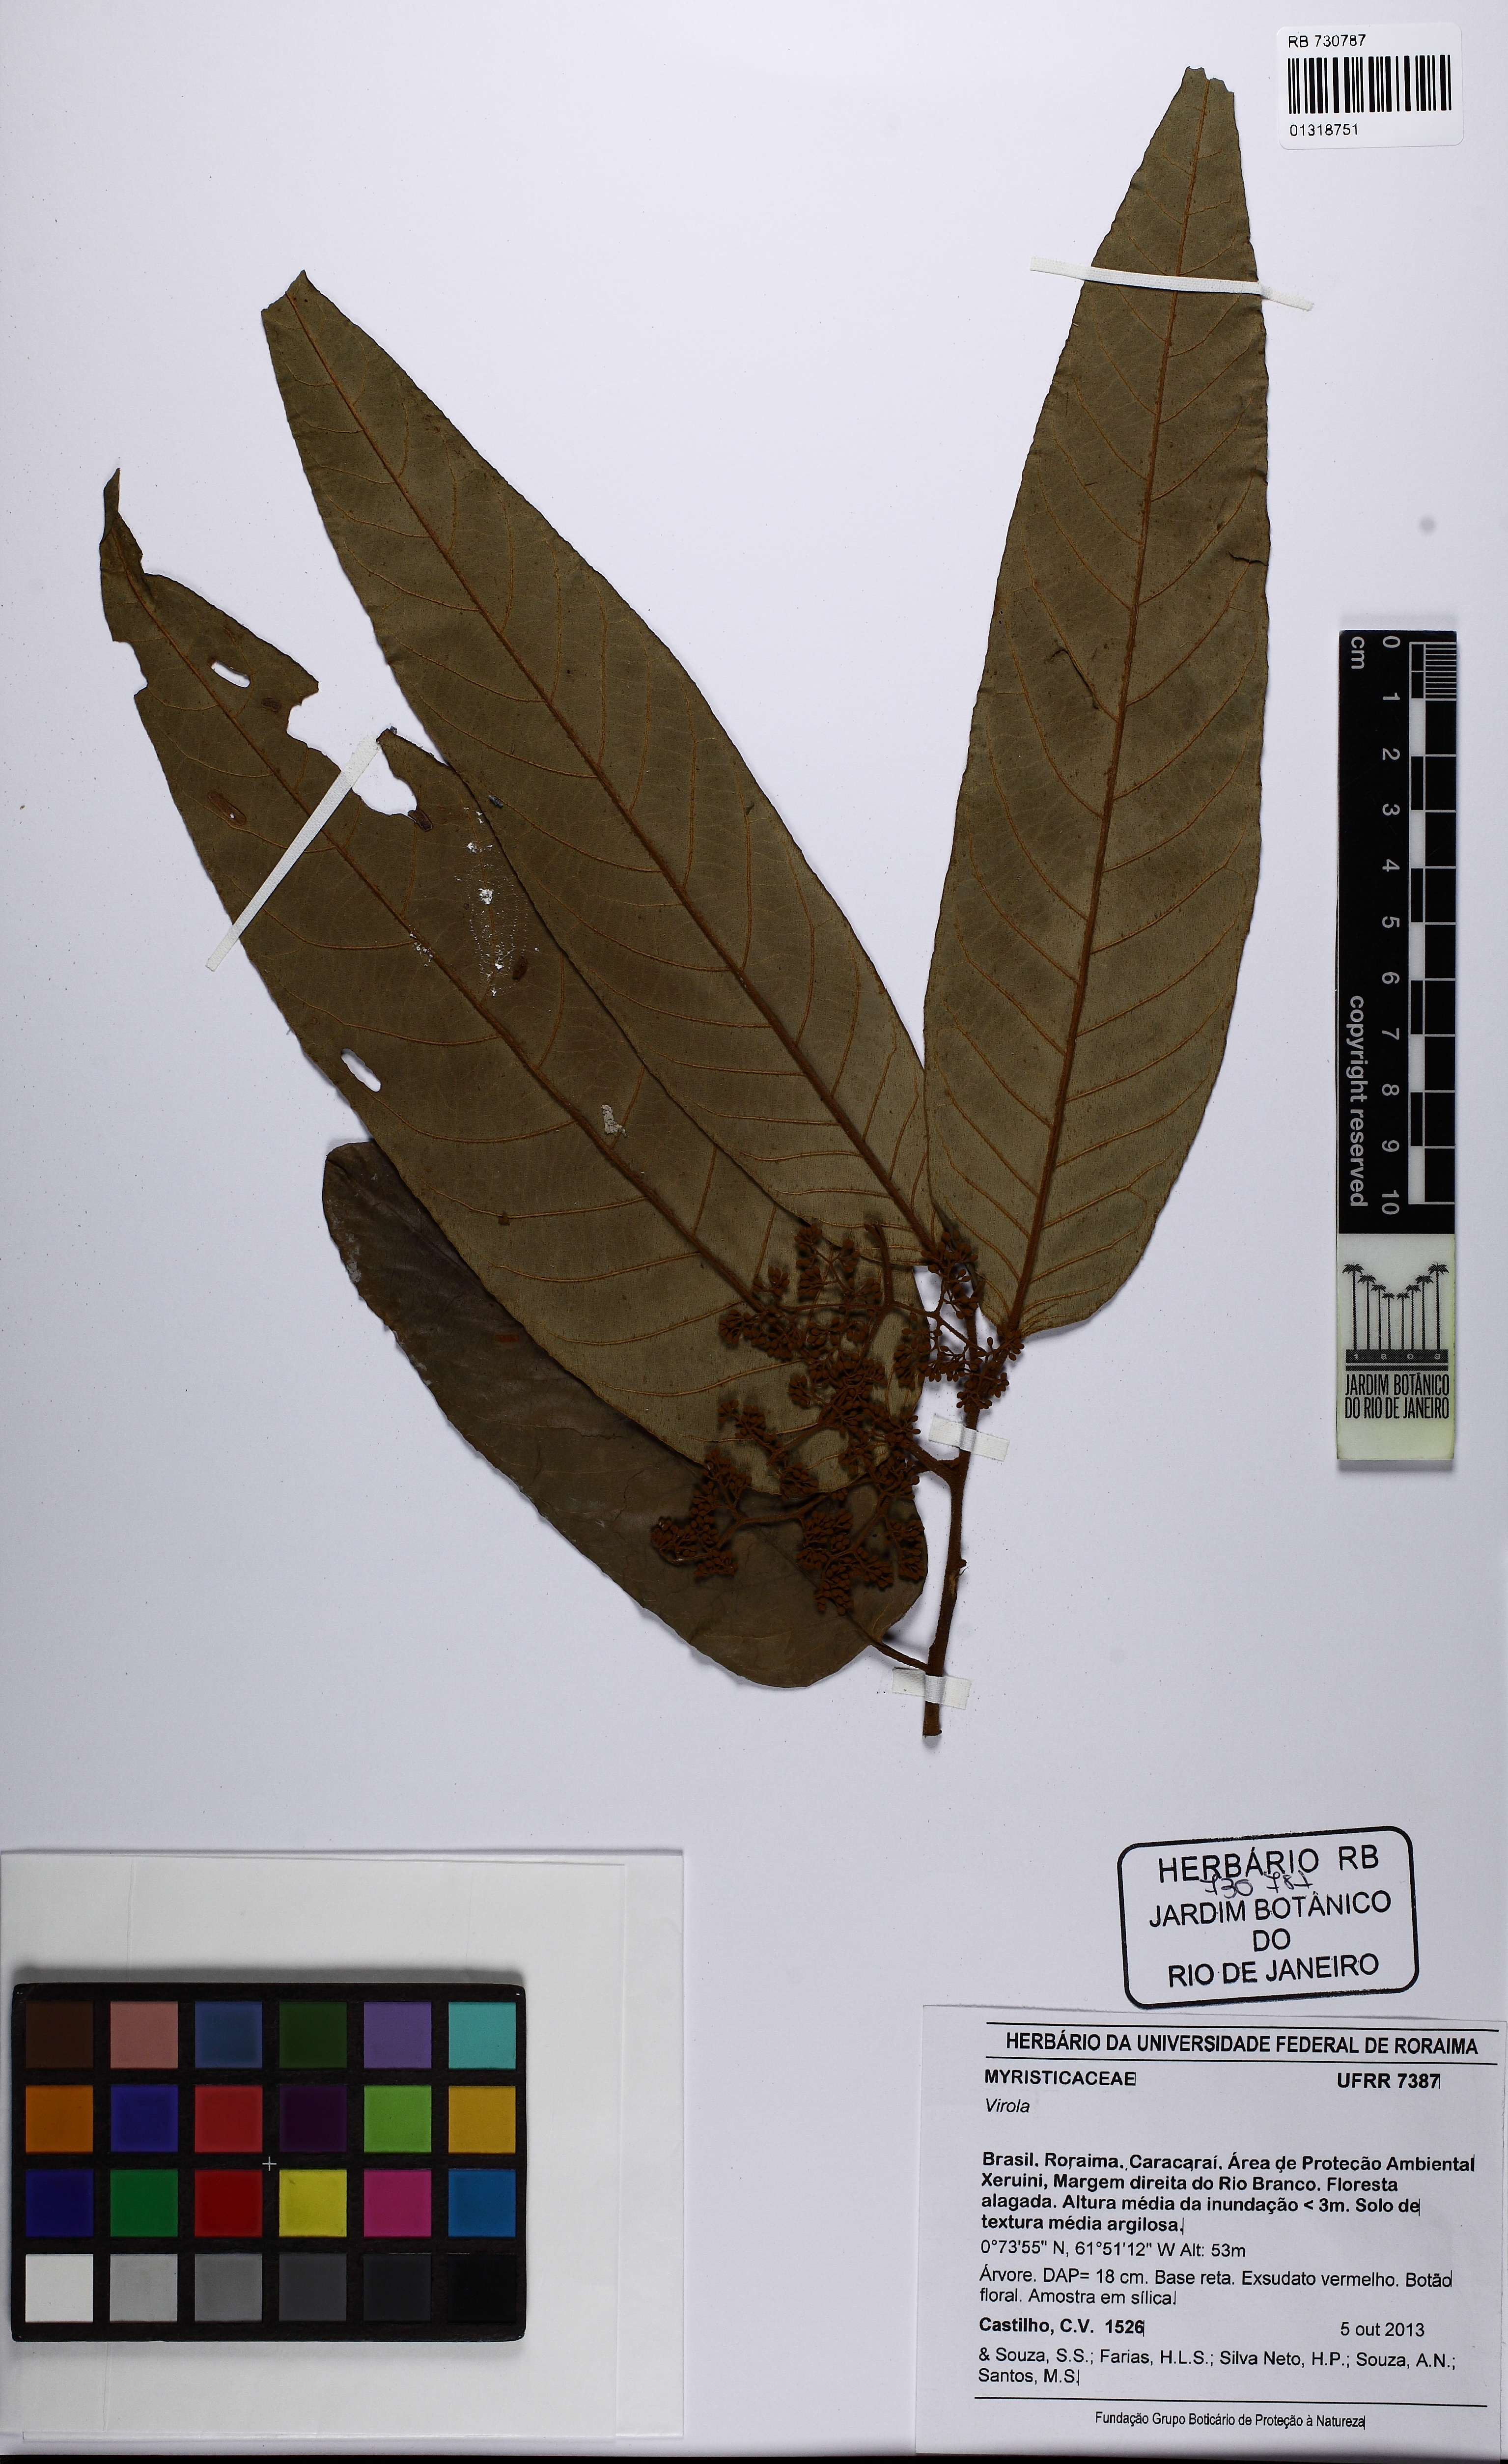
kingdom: Plantae
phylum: Tracheophyta
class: Magnoliopsida
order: Magnoliales
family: Myristicaceae
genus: Virola
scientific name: Virola
